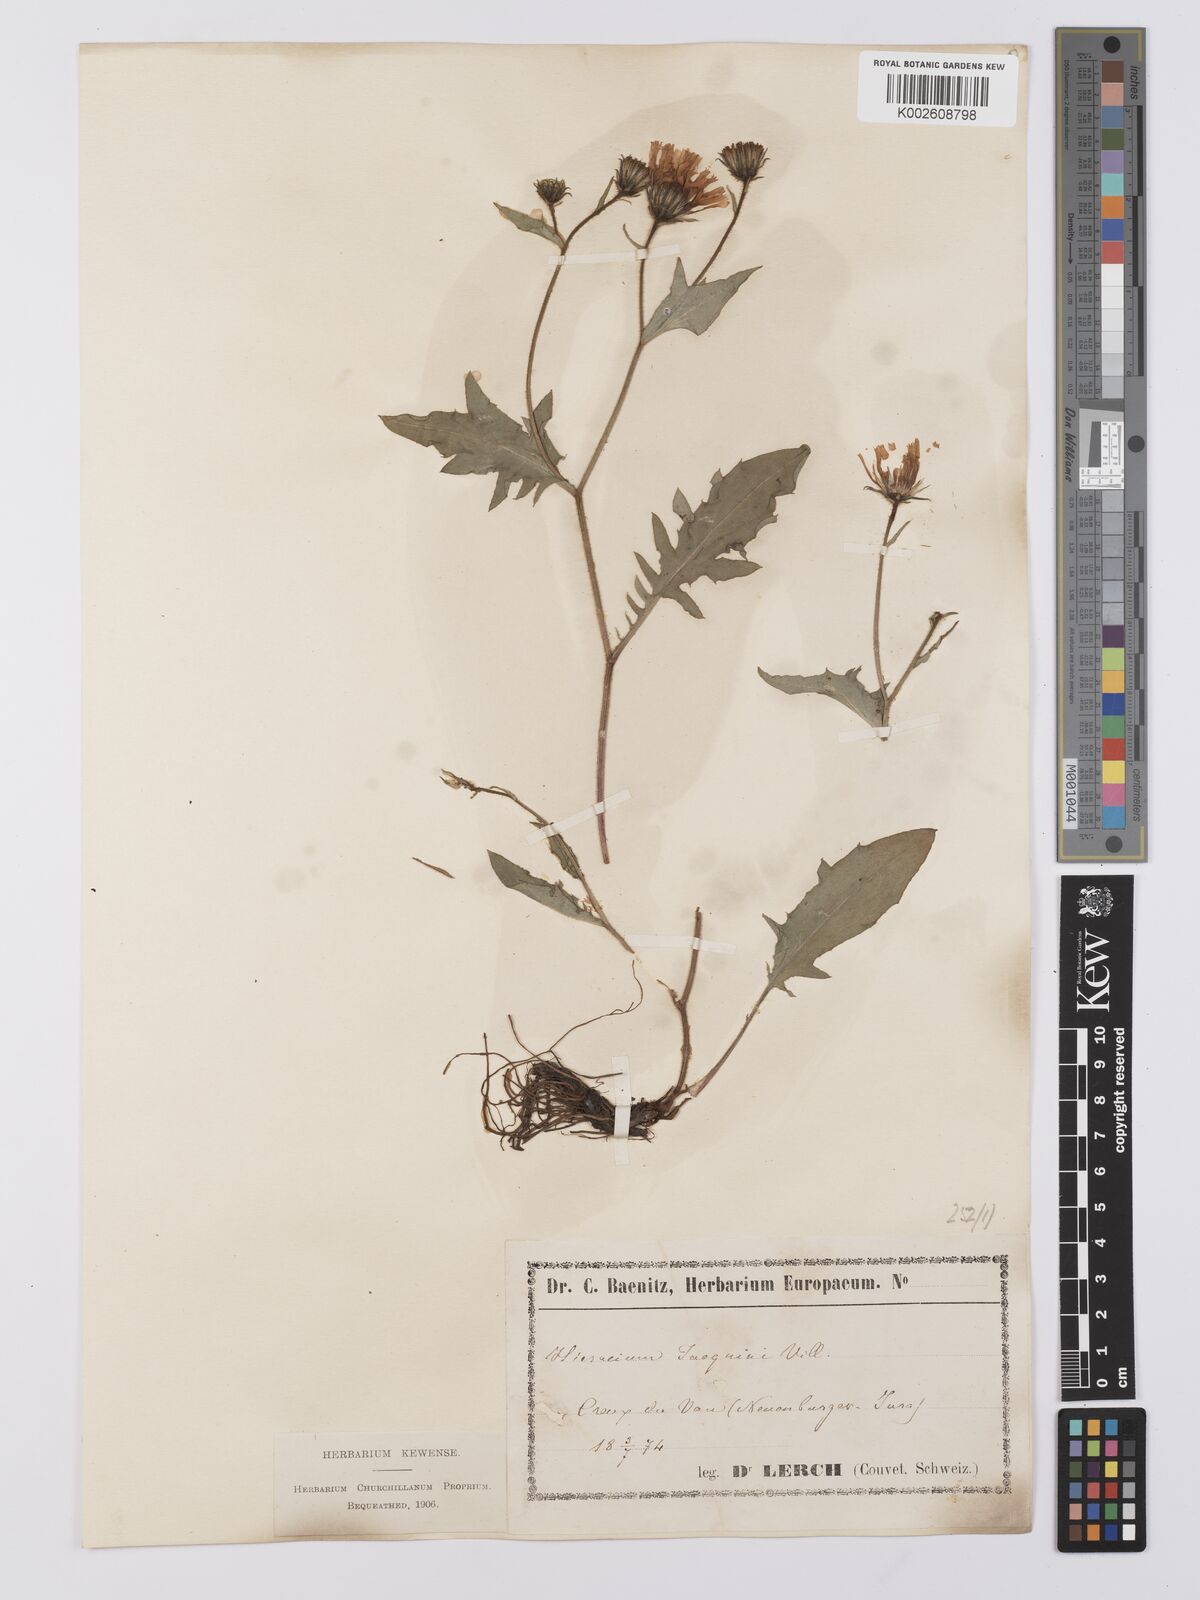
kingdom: Plantae
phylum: Tracheophyta
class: Magnoliopsida
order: Asterales
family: Asteraceae
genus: Hieracium
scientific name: Hieracium humile
